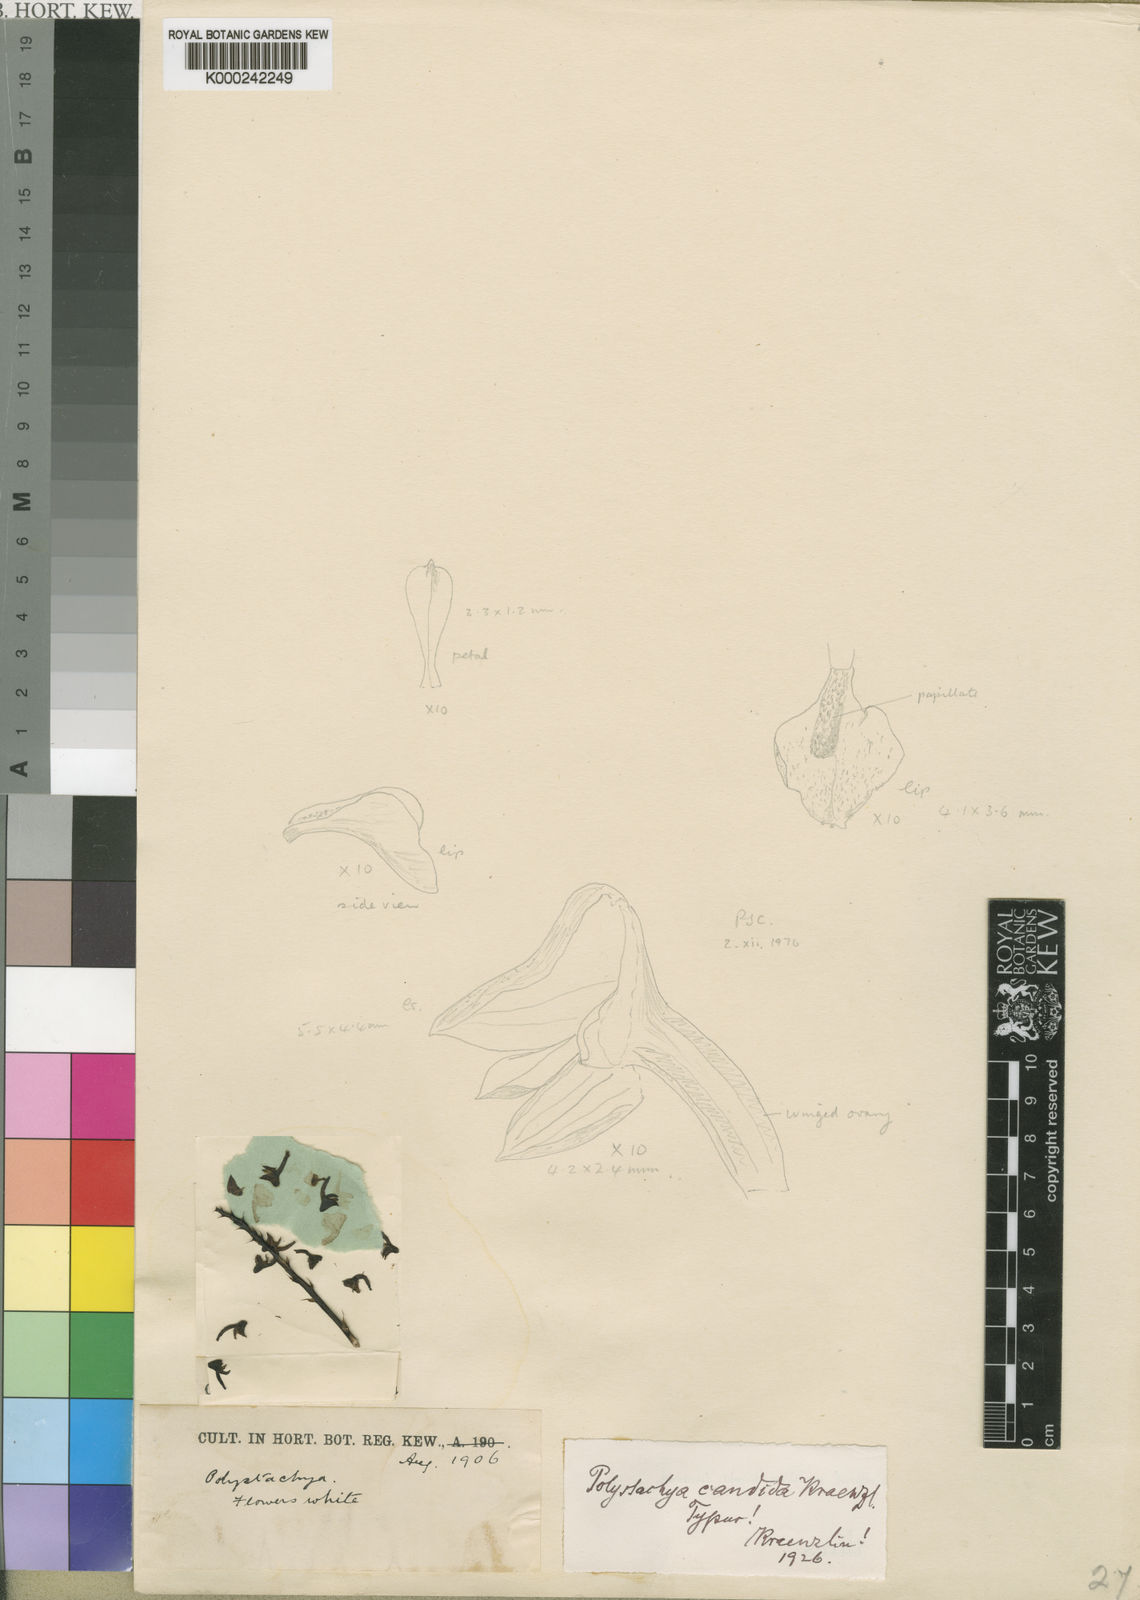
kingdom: Plantae
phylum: Tracheophyta
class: Liliopsida
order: Asparagales
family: Orchidaceae
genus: Polystachya
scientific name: Polystachya candida
